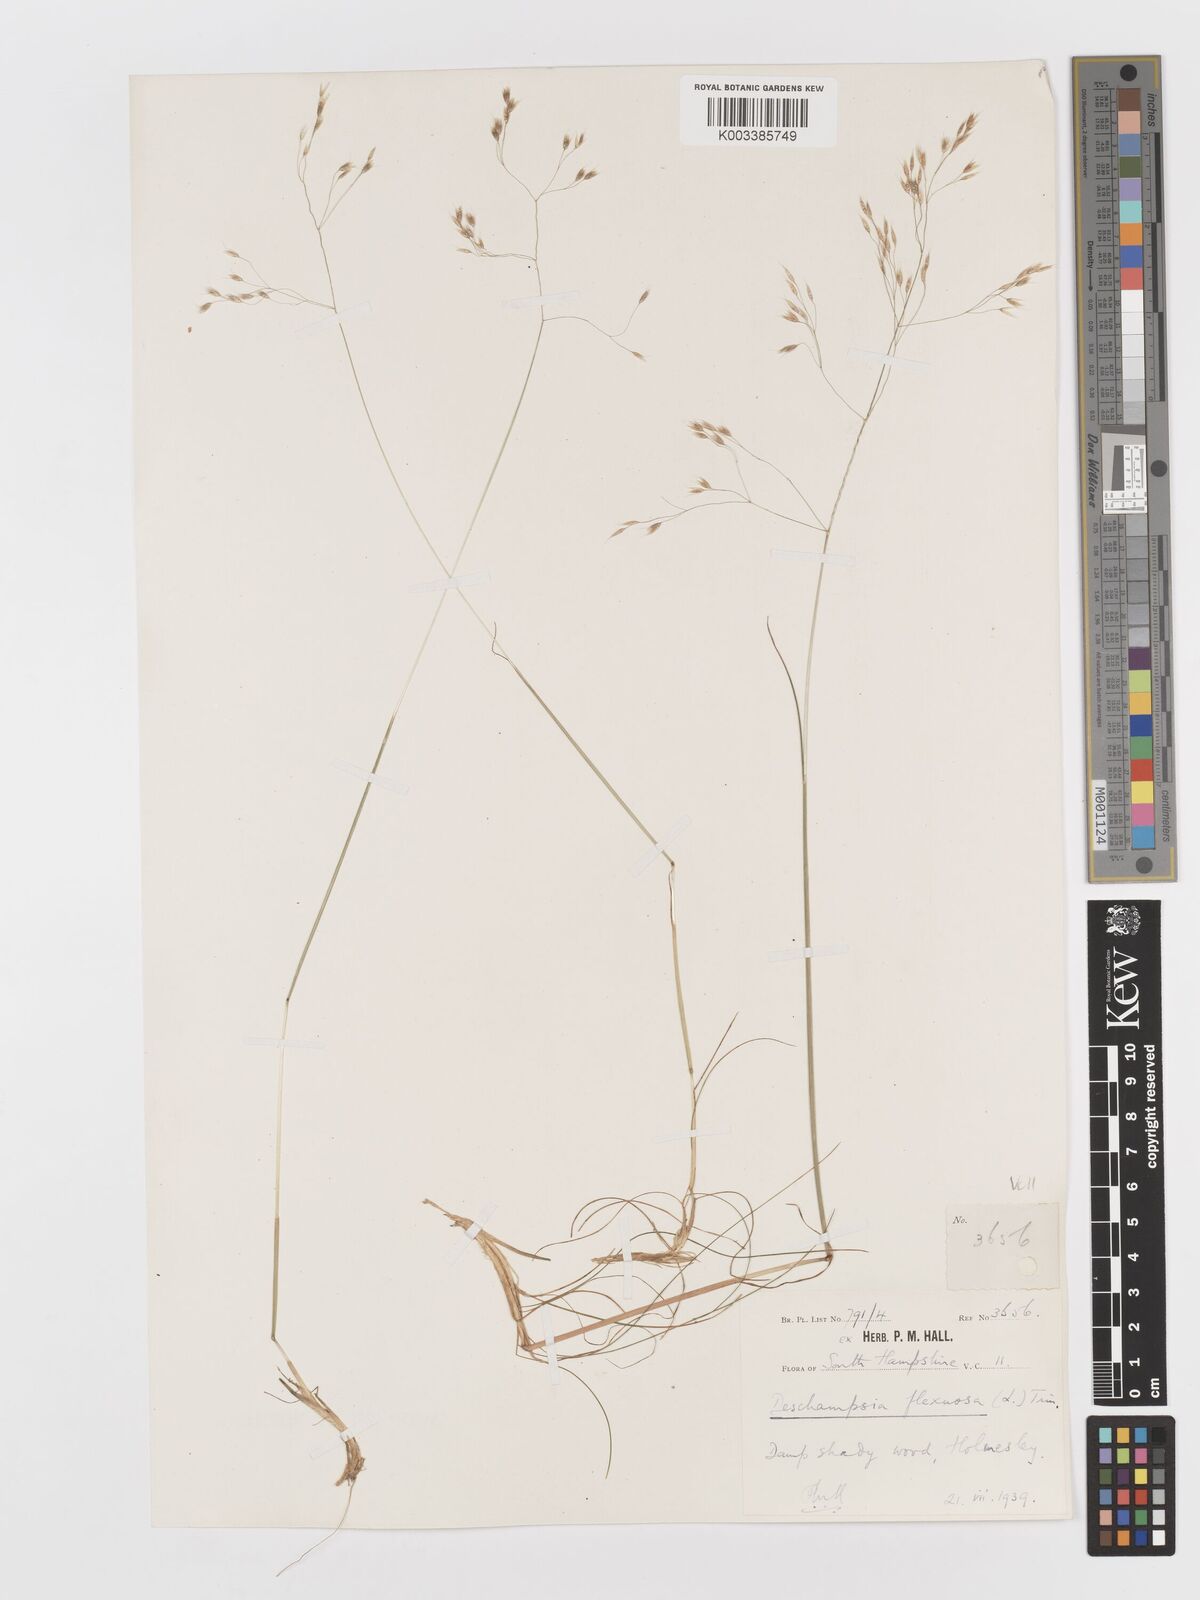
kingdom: Plantae
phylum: Tracheophyta
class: Liliopsida
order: Poales
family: Poaceae
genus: Avenella
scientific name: Avenella flexuosa
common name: Wavy hairgrass
